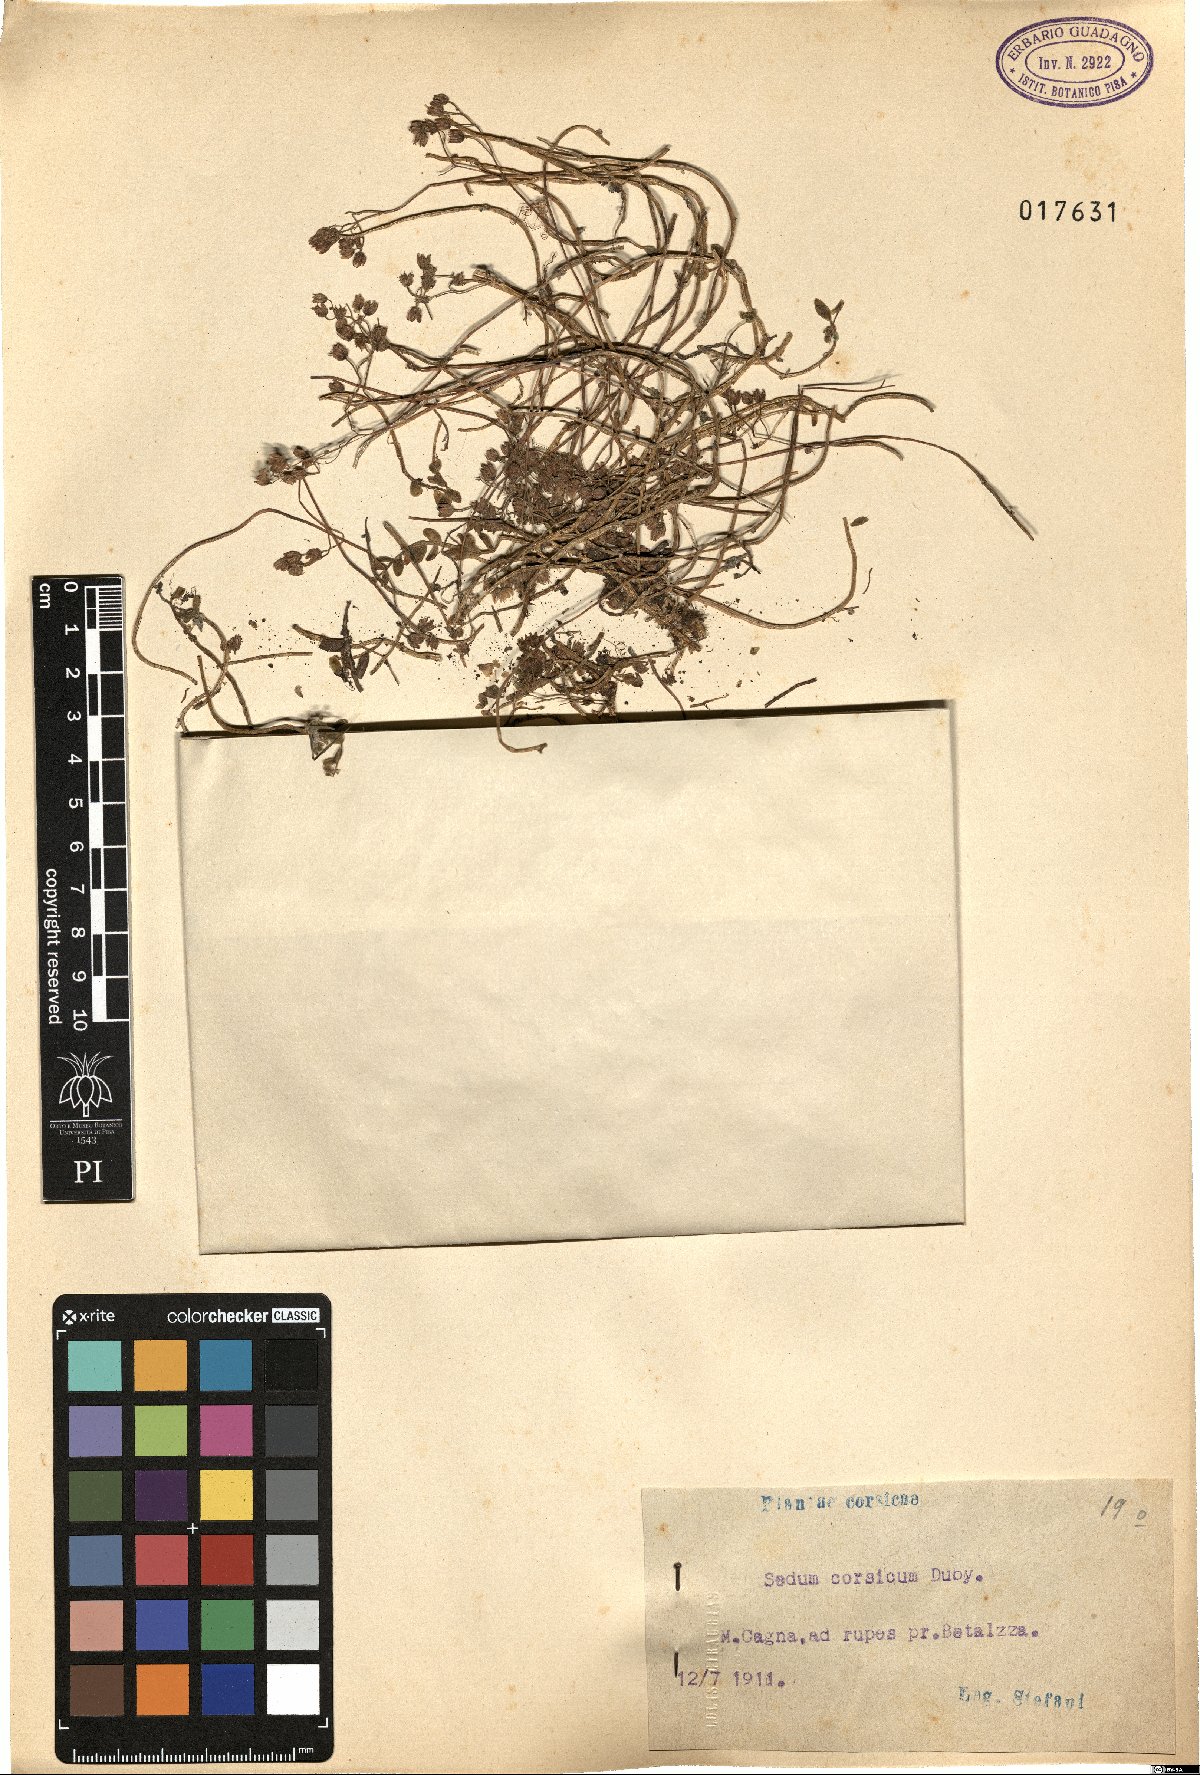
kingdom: Plantae
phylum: Tracheophyta
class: Magnoliopsida
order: Saxifragales
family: Crassulaceae
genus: Sedum
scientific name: Sedum dasyphyllum
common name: Thick-leaf stonecrop
